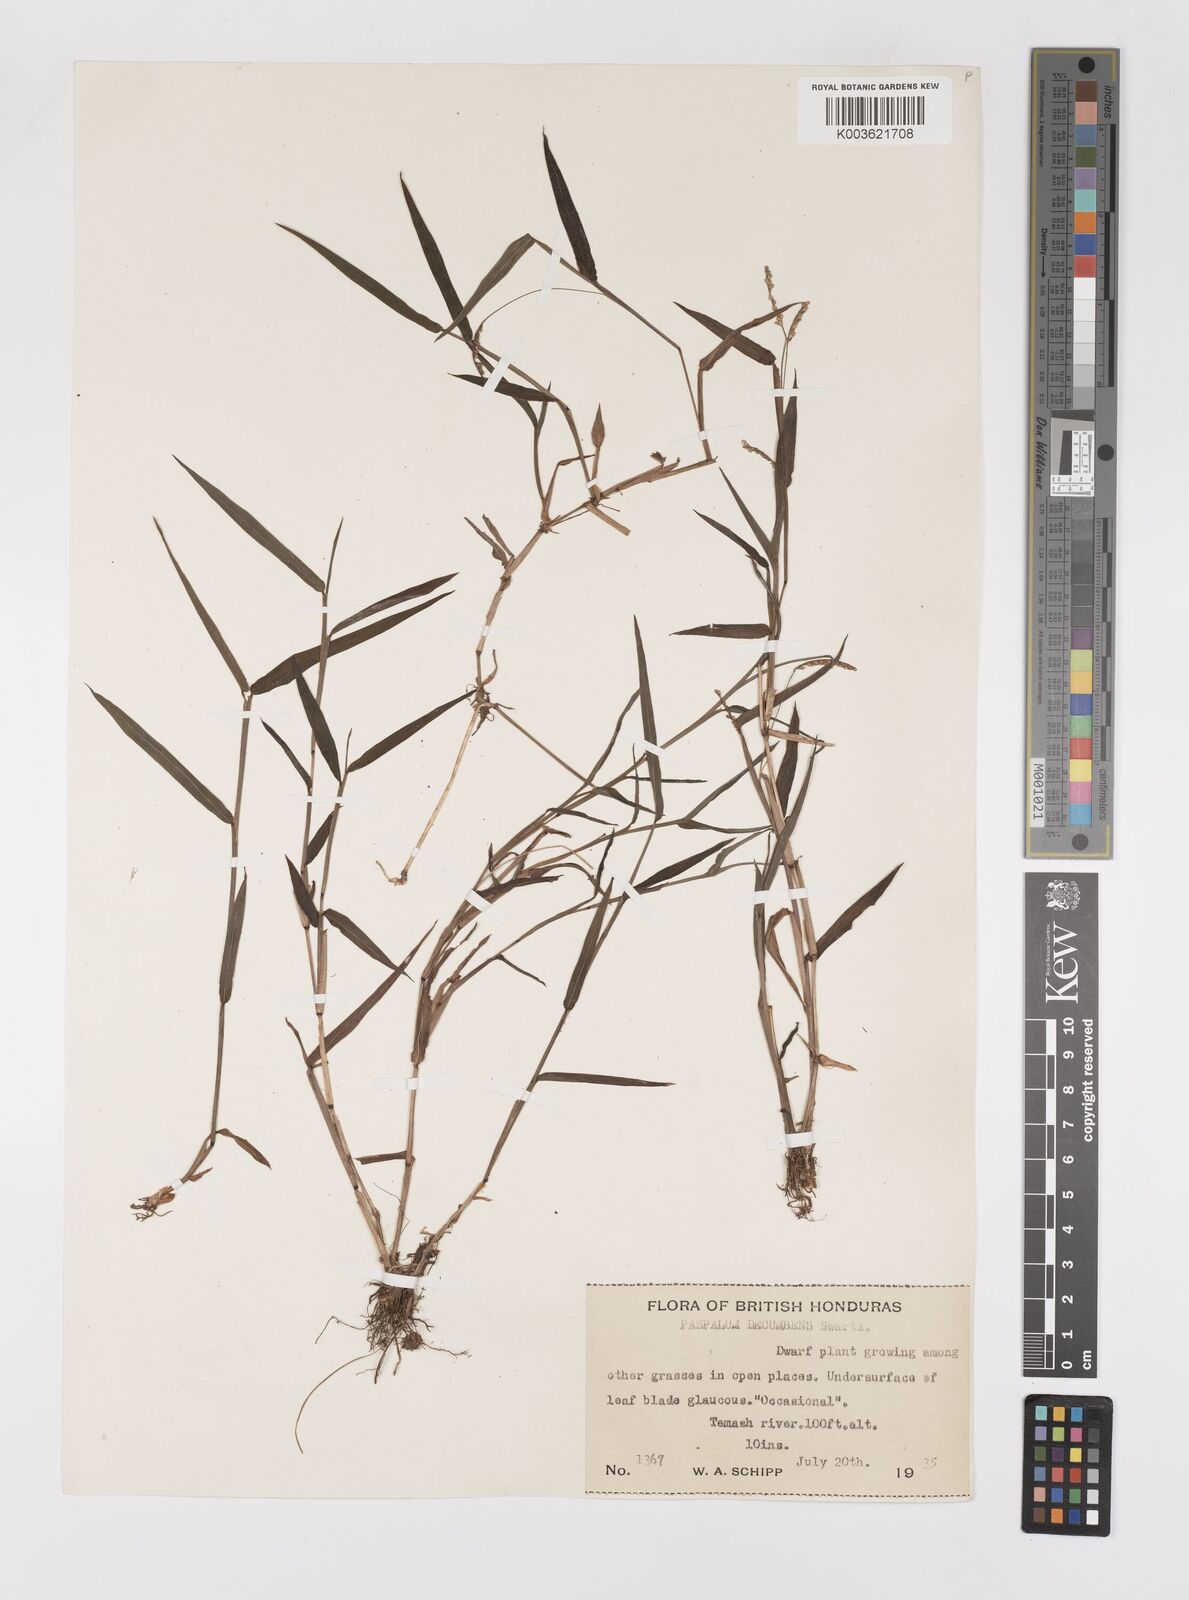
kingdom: Plantae
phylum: Tracheophyta
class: Liliopsida
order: Poales
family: Poaceae
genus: Paspalum
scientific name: Paspalum
